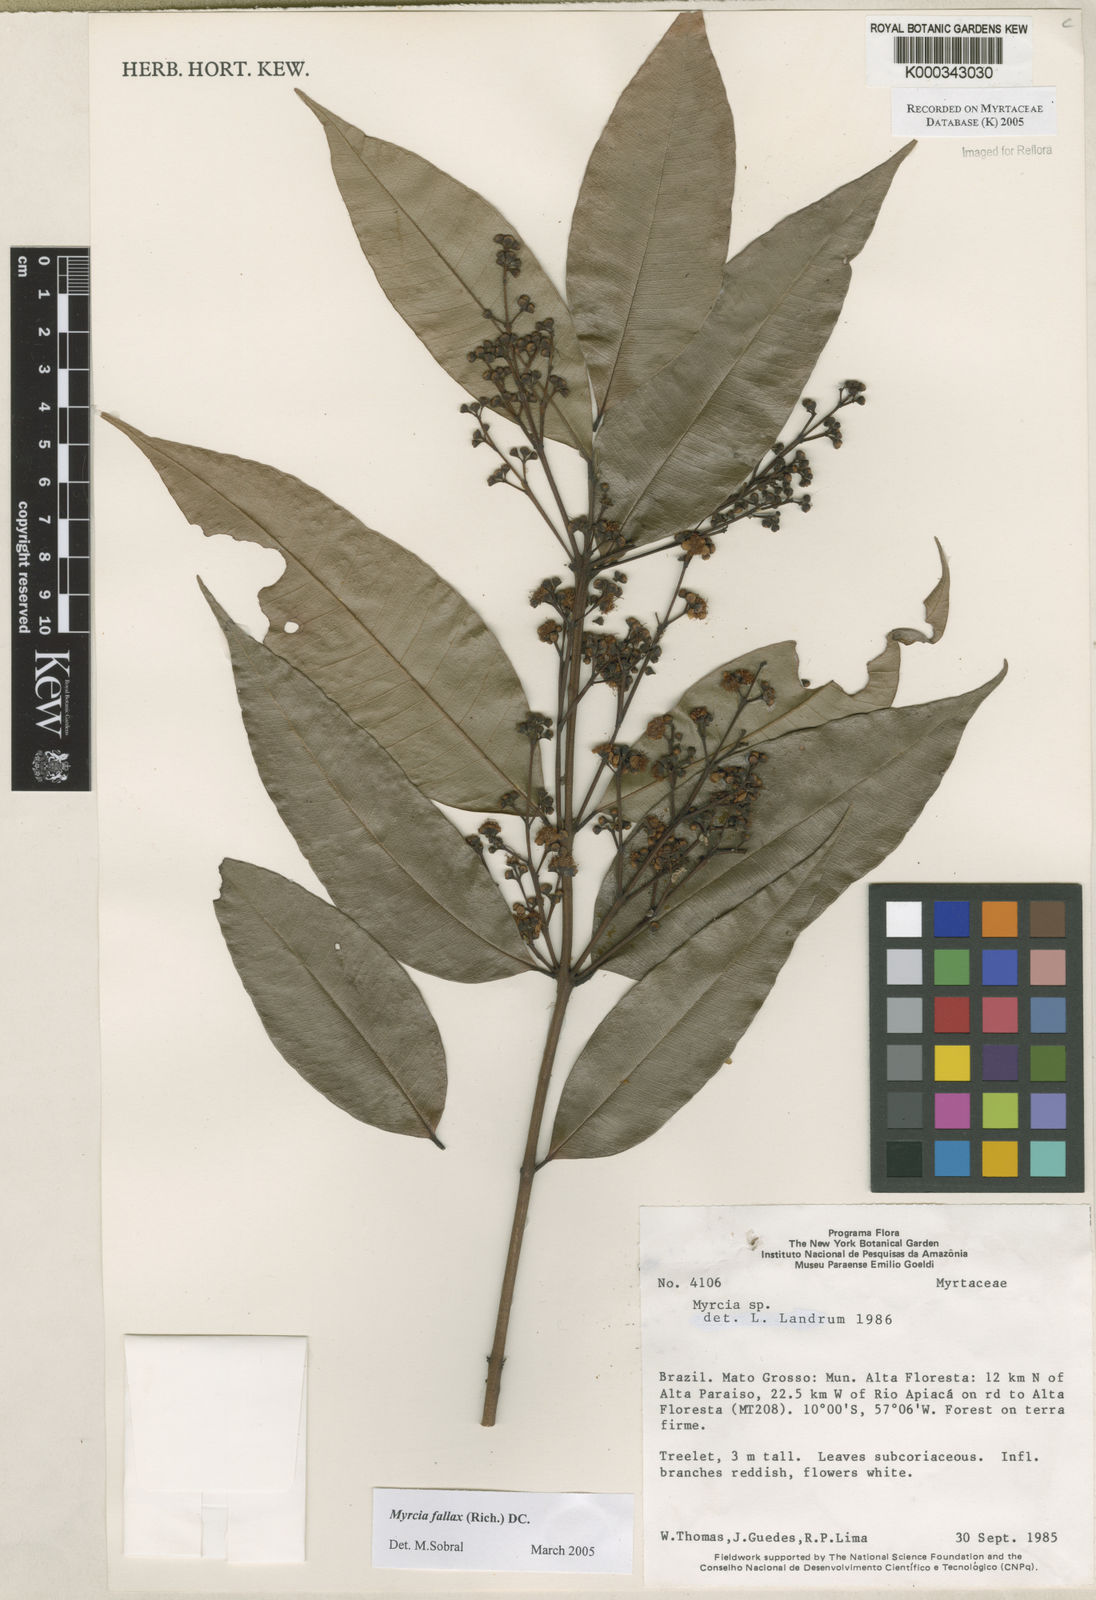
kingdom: Plantae
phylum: Tracheophyta
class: Magnoliopsida
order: Myrtales
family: Myrtaceae
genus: Myrcia
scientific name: Myrcia splendens
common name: Surinam cherry
